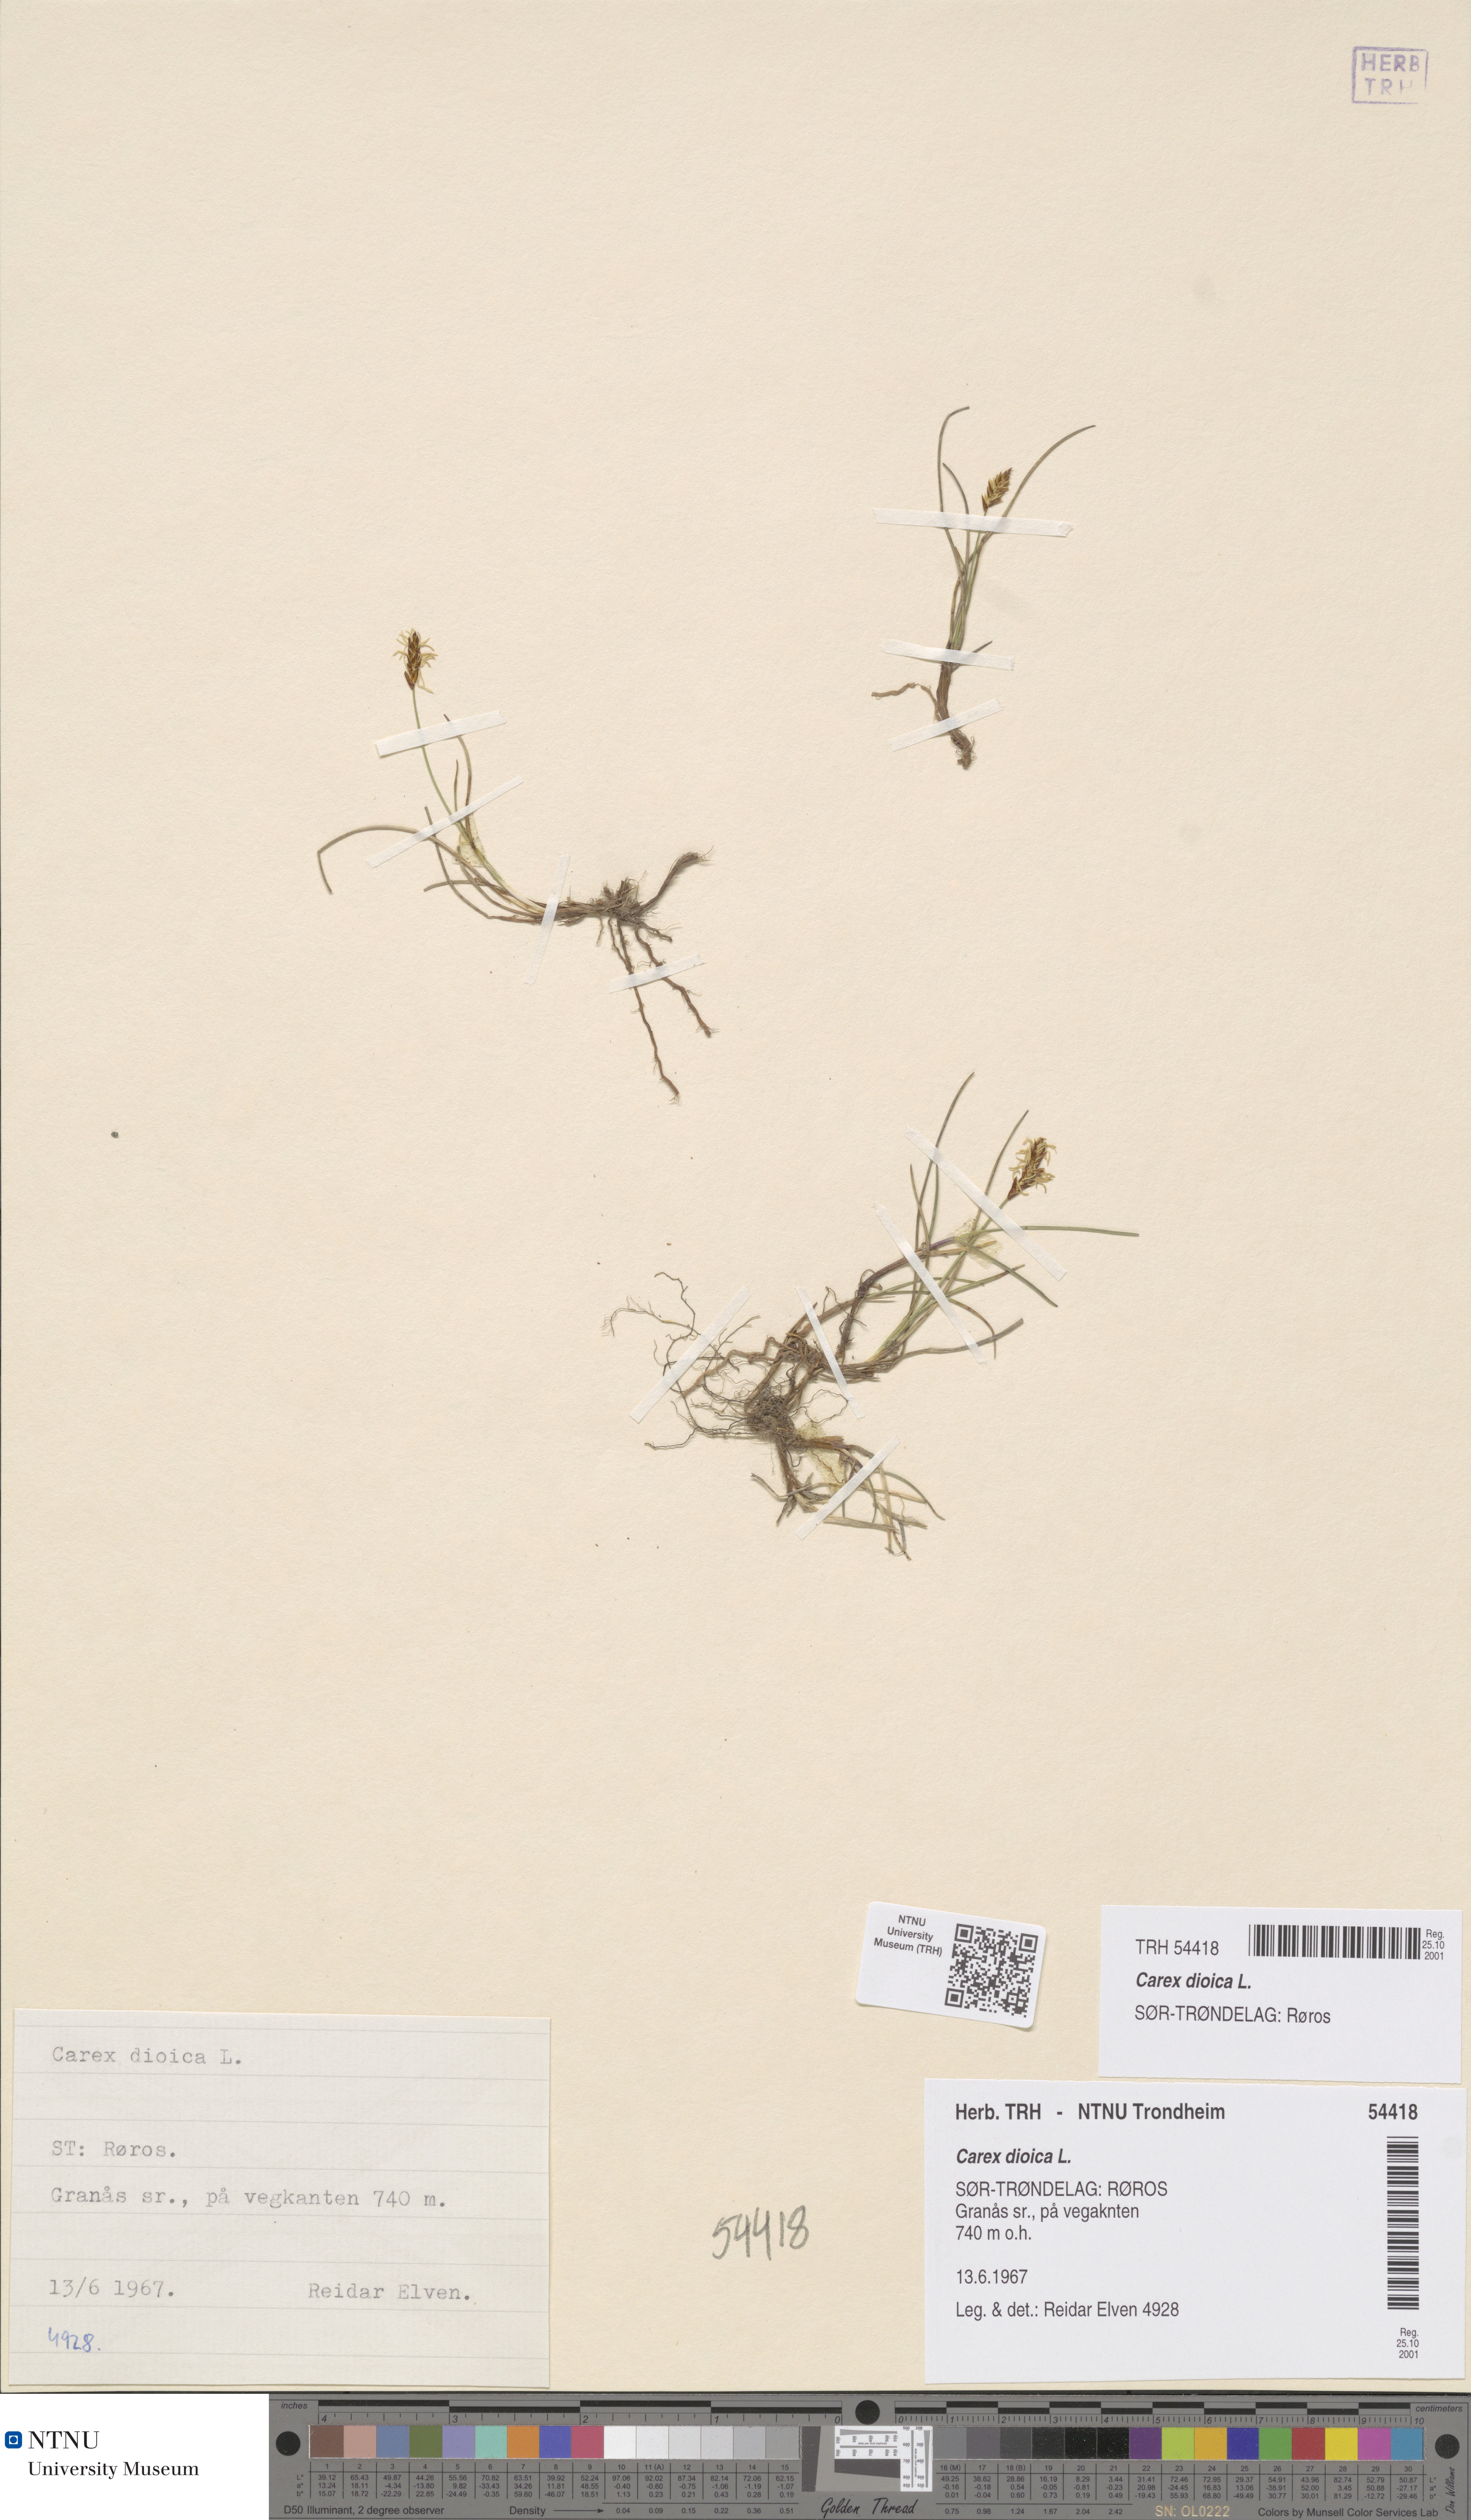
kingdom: Plantae
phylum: Tracheophyta
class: Liliopsida
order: Poales
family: Cyperaceae
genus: Carex
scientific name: Carex dioica
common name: Dioecious sedge
